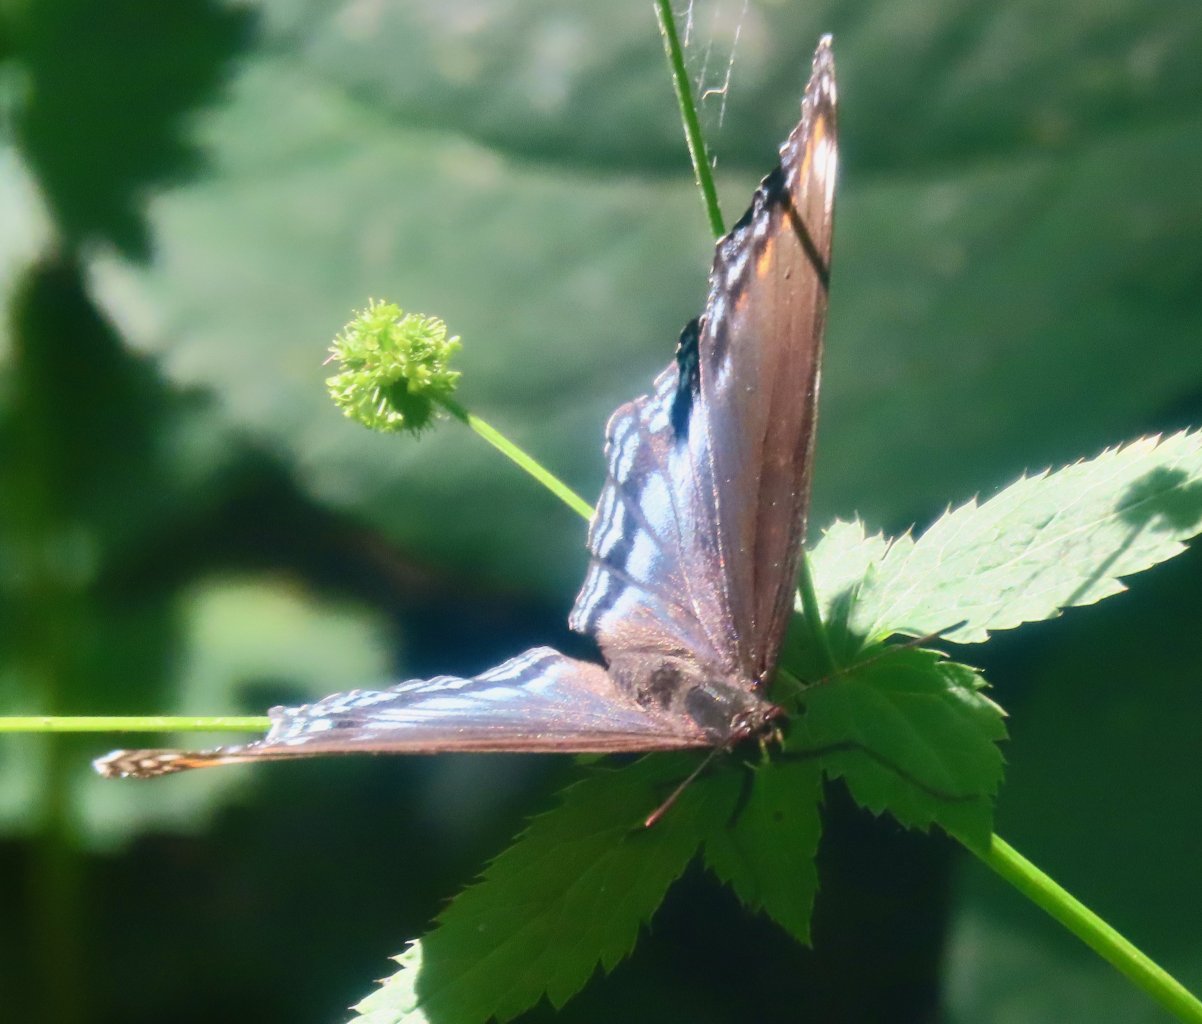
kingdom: Animalia
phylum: Arthropoda
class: Insecta
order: Lepidoptera
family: Nymphalidae
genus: Limenitis
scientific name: Limenitis astyanax
